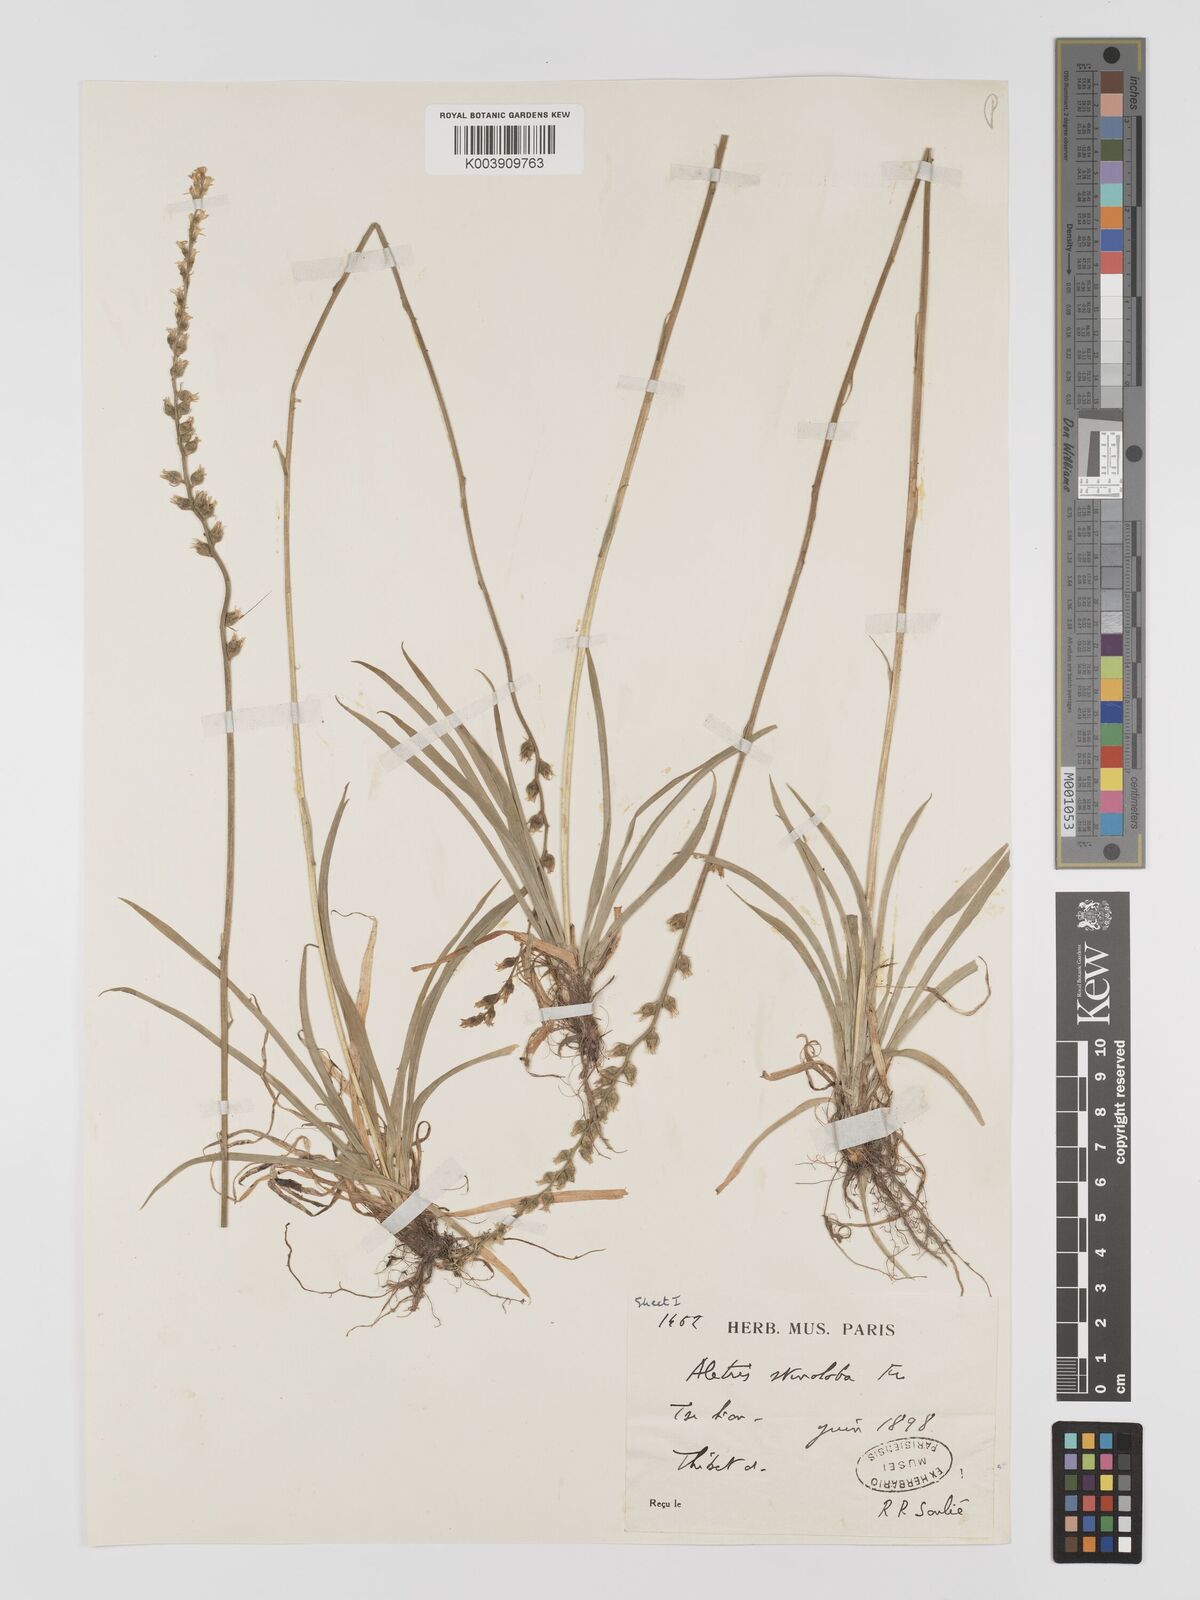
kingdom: Plantae
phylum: Tracheophyta
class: Liliopsida
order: Dioscoreales
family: Nartheciaceae
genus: Aletris
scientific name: Aletris stenoloba
